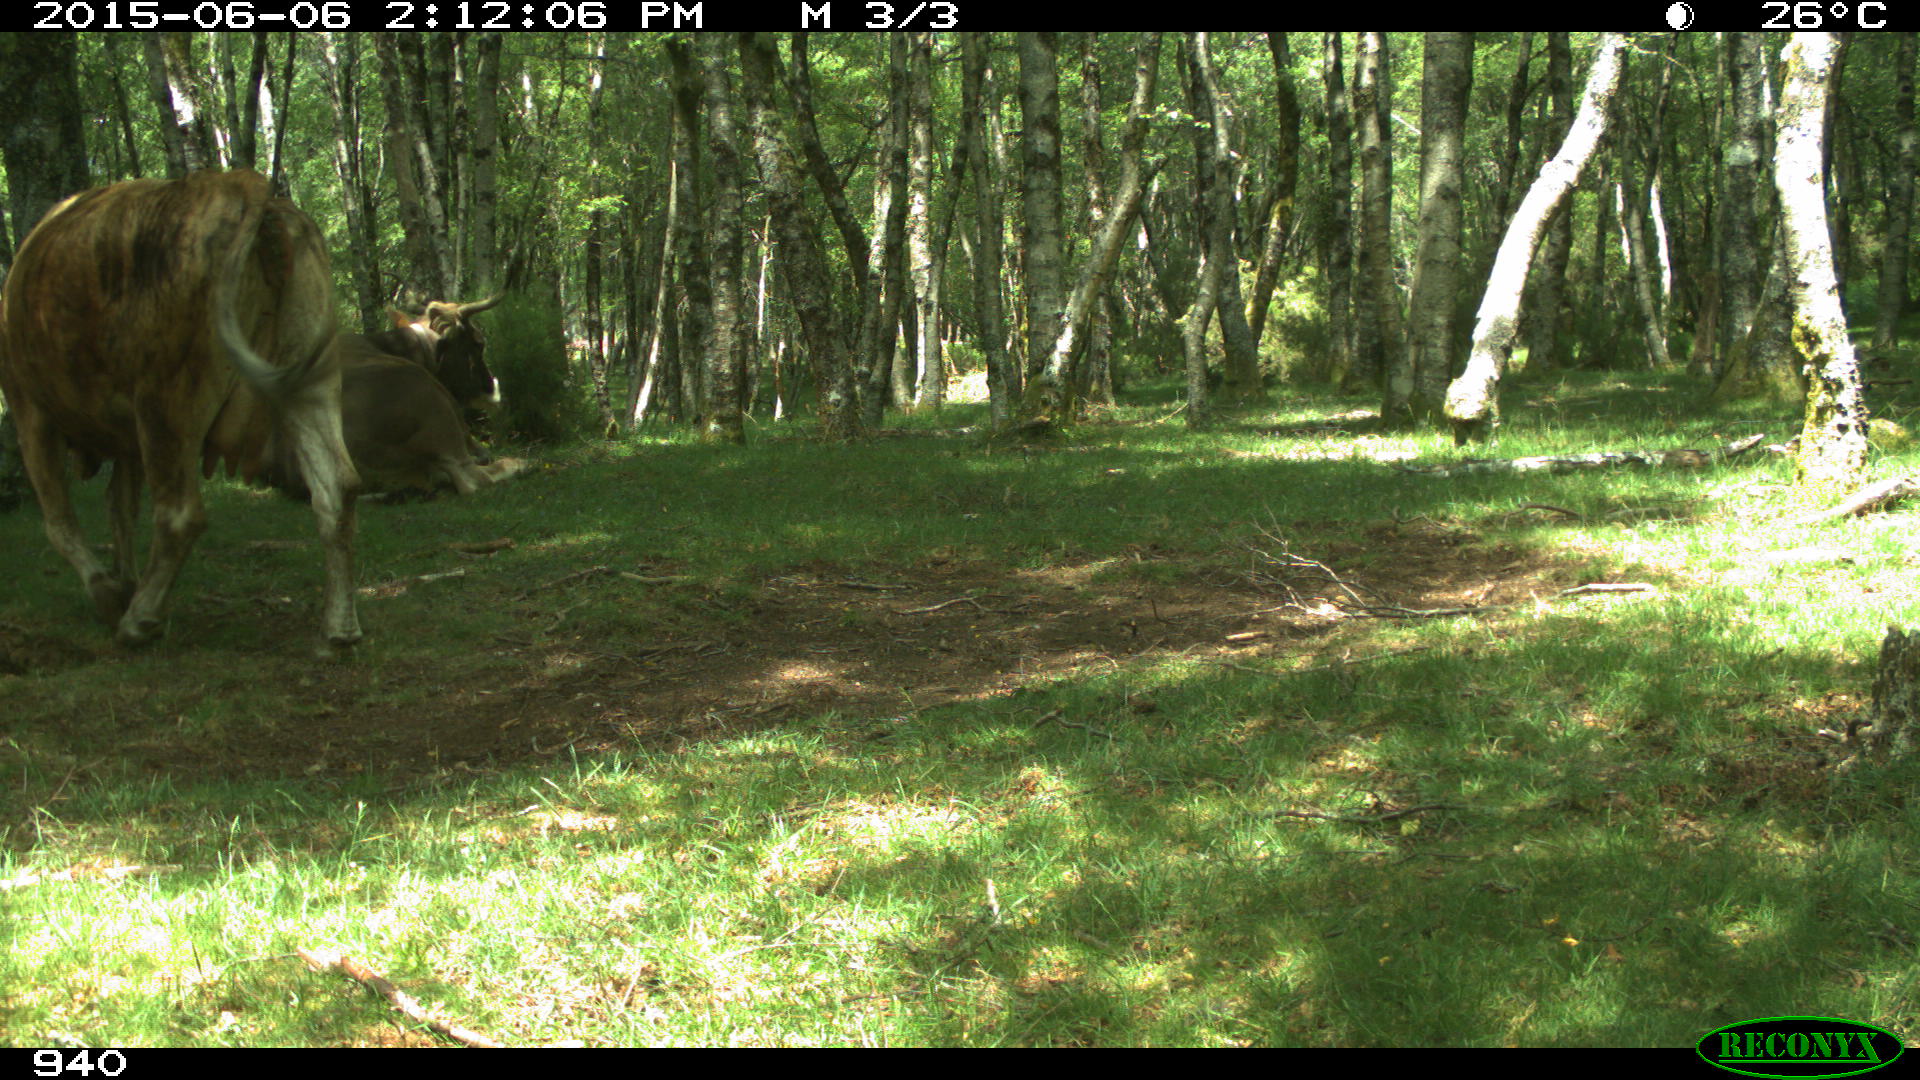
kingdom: Animalia
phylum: Chordata
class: Mammalia
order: Artiodactyla
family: Bovidae
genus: Bos
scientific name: Bos taurus
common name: Domesticated cattle
